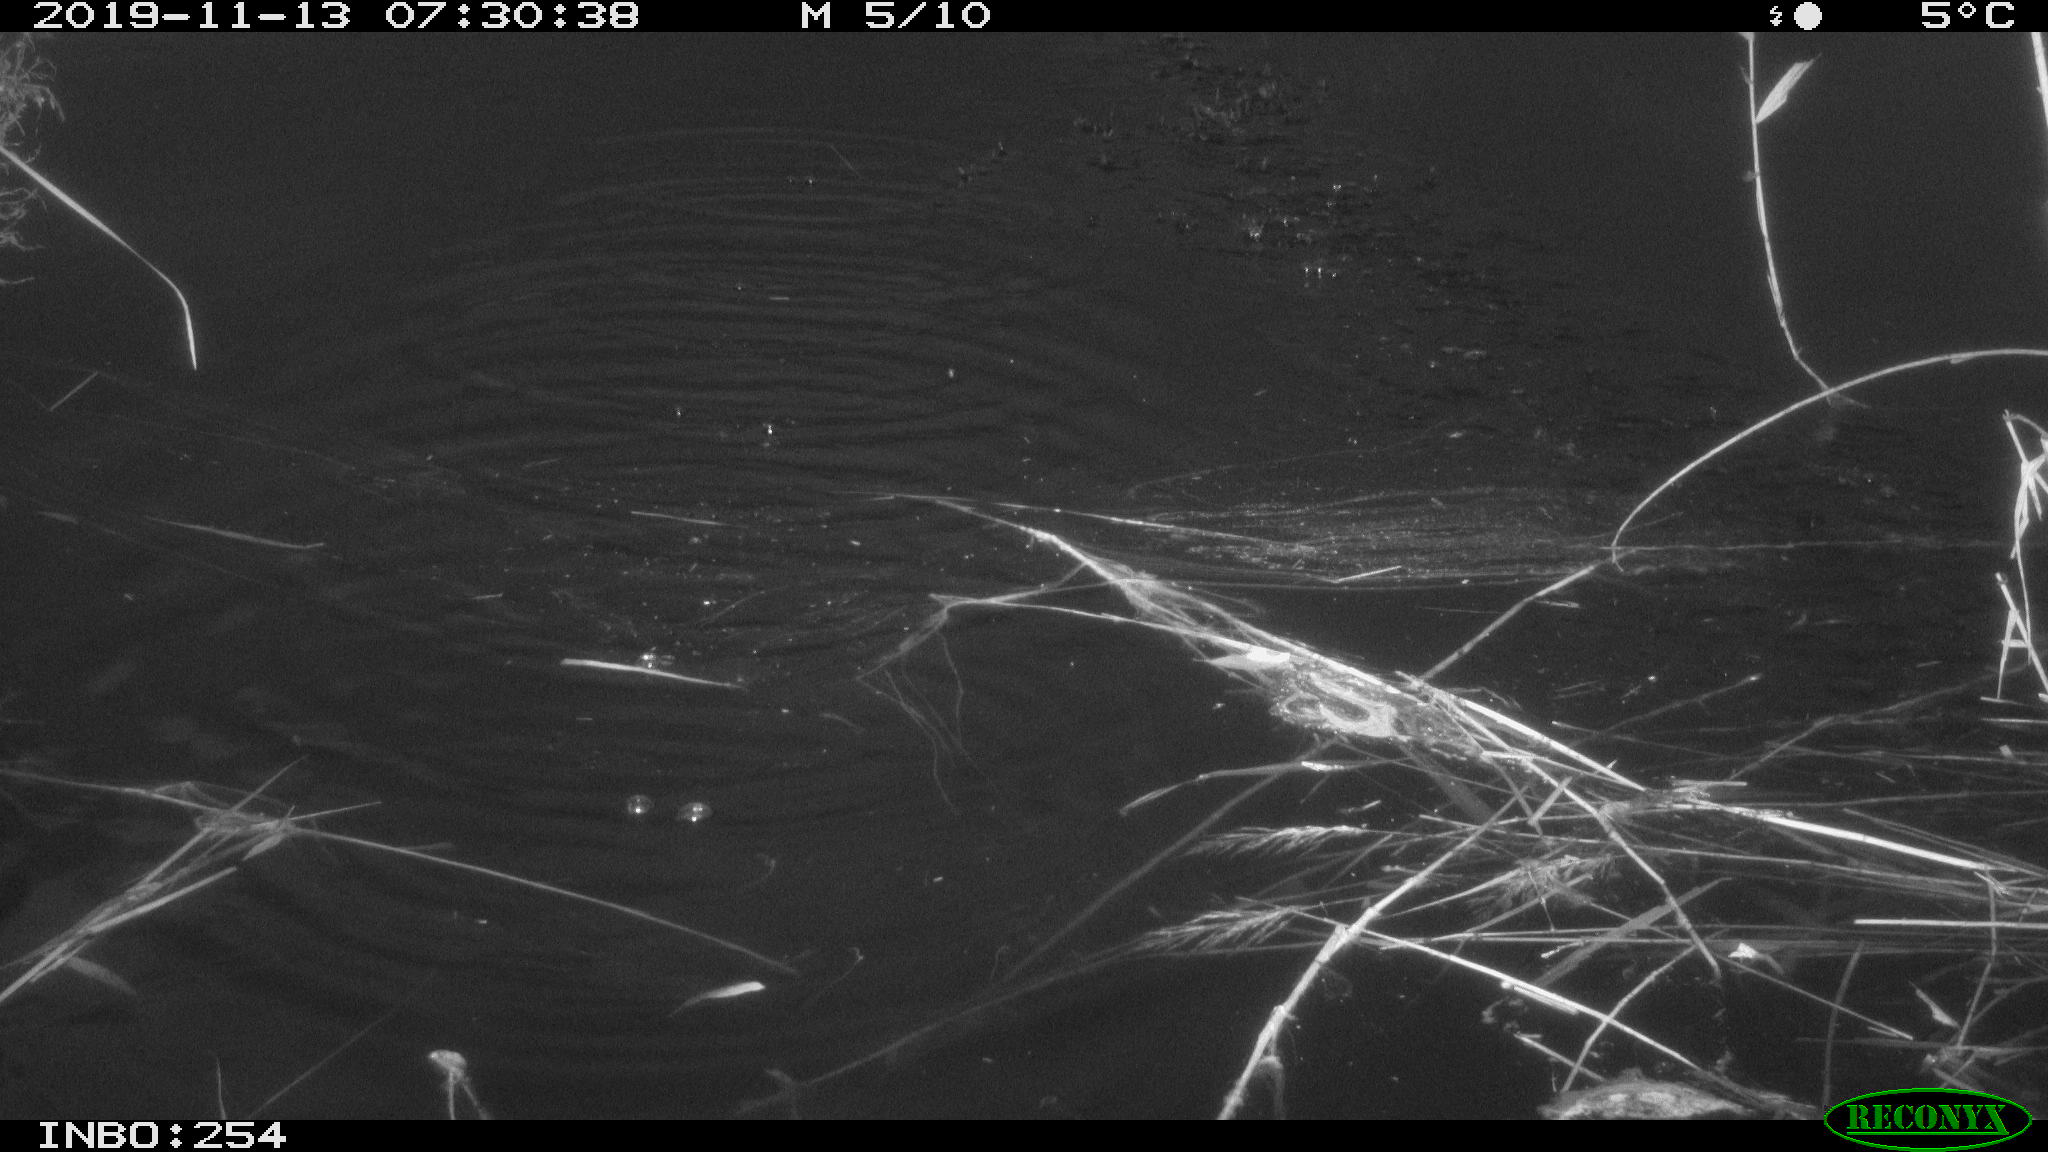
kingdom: Animalia
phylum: Chordata
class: Aves
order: Gruiformes
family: Rallidae
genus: Gallinula
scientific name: Gallinula chloropus
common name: Common moorhen
